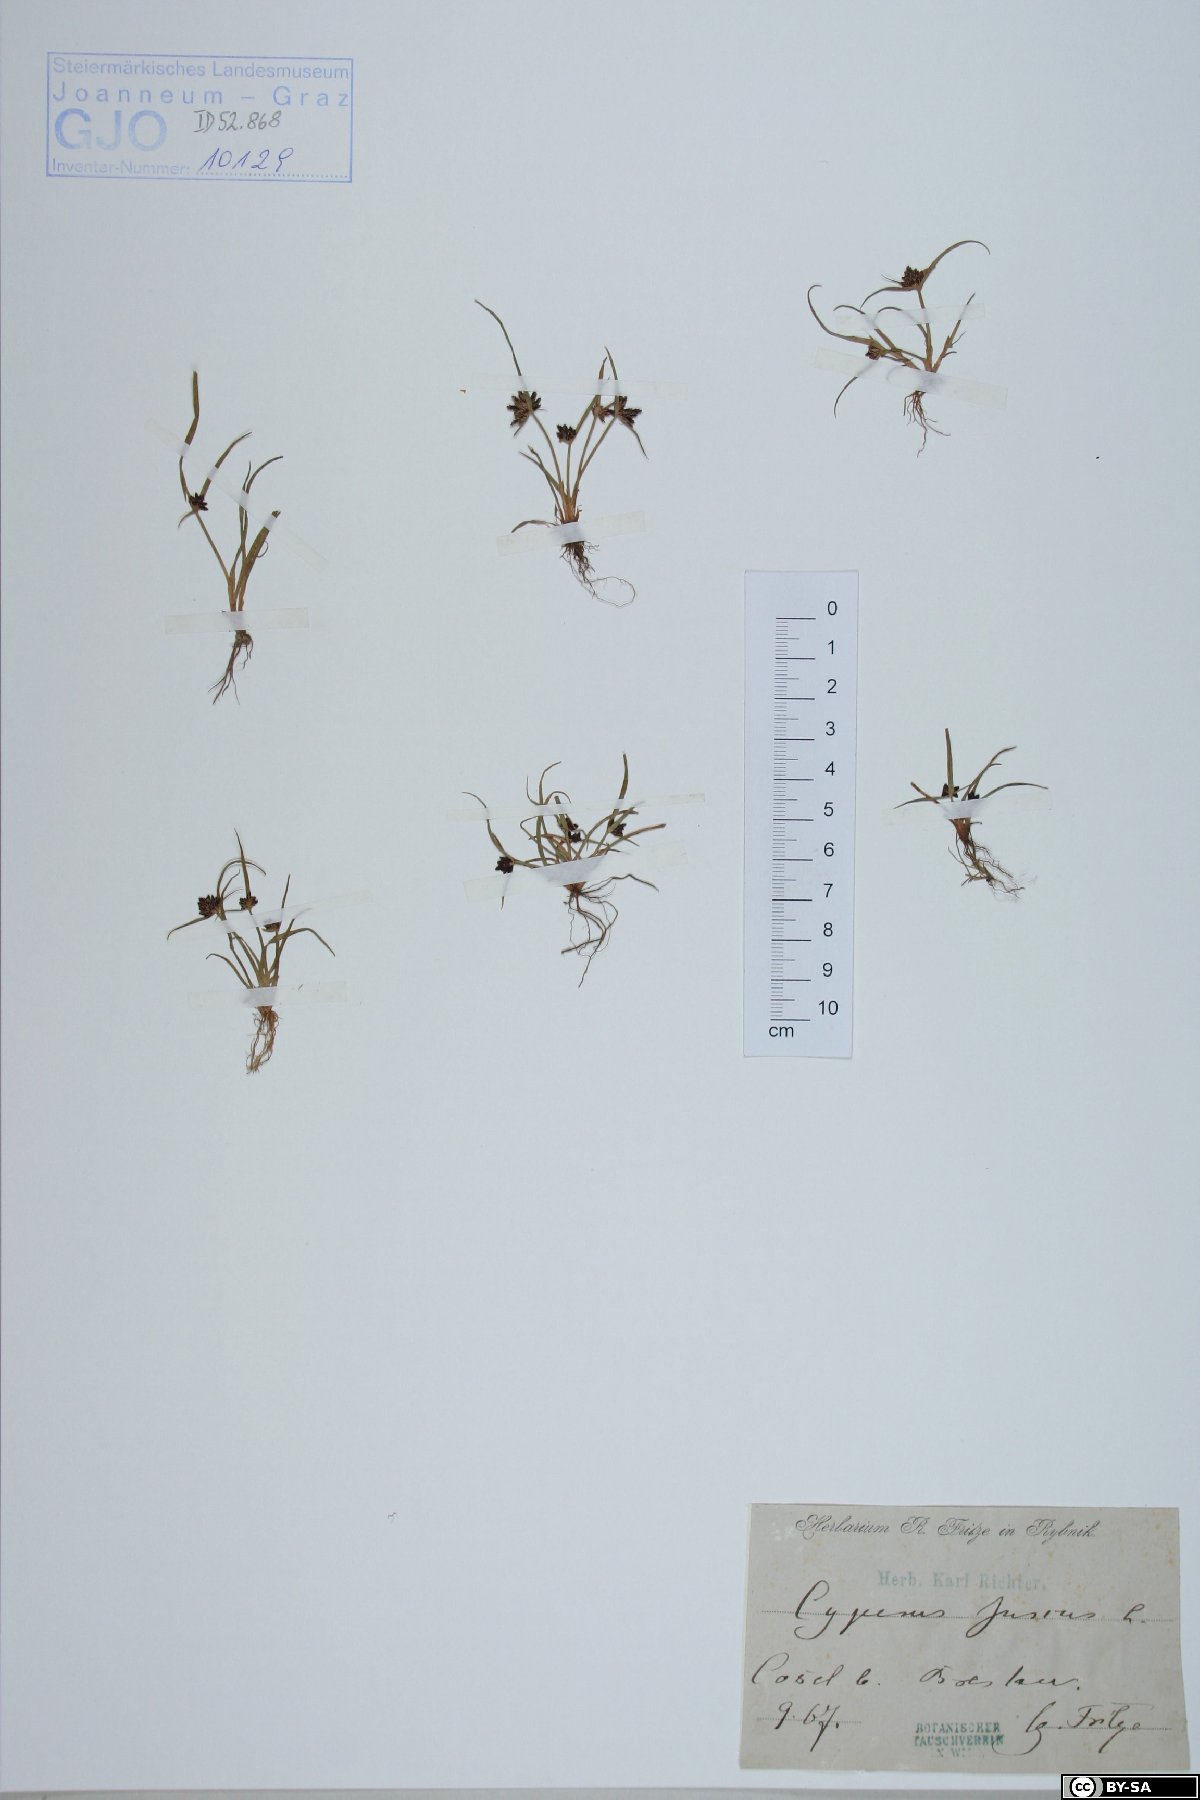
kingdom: Plantae
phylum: Tracheophyta
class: Liliopsida
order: Poales
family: Cyperaceae
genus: Cyperus
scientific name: Cyperus fuscus
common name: Brown galingale
